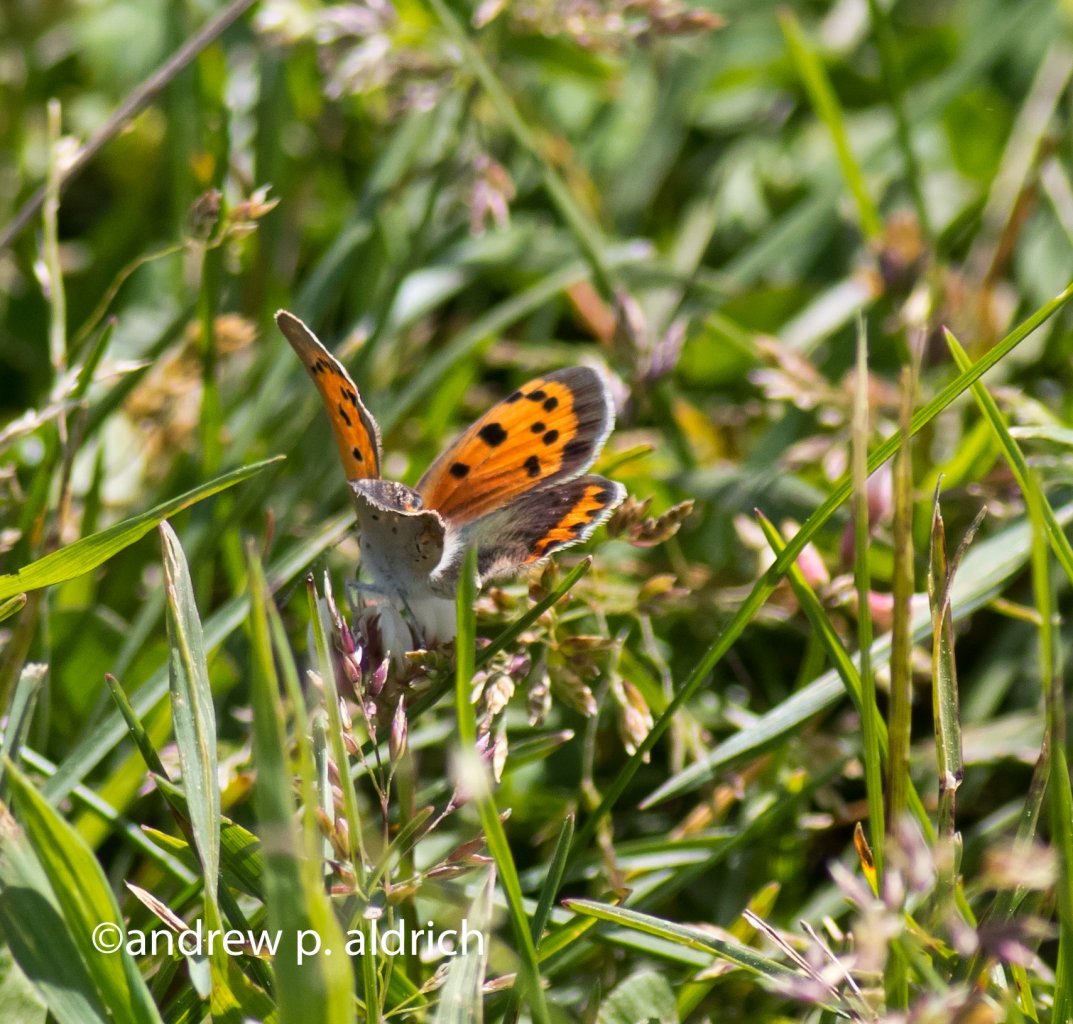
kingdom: Animalia
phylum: Arthropoda
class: Insecta
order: Lepidoptera
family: Lycaenidae
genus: Lycaena
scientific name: Lycaena phlaeas
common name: American Copper
